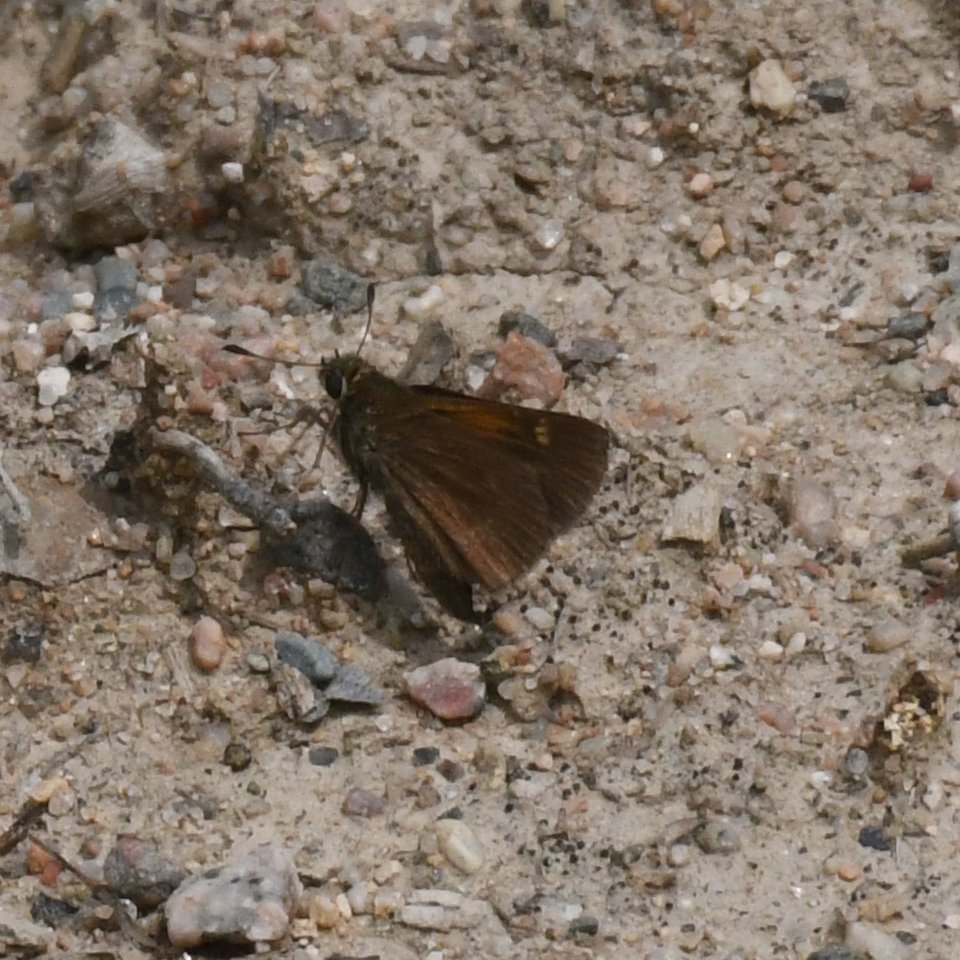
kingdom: Animalia
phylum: Arthropoda
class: Insecta
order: Lepidoptera
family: Hesperiidae
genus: Polites
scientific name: Polites themistocles
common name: Tawny-edged Skipper
